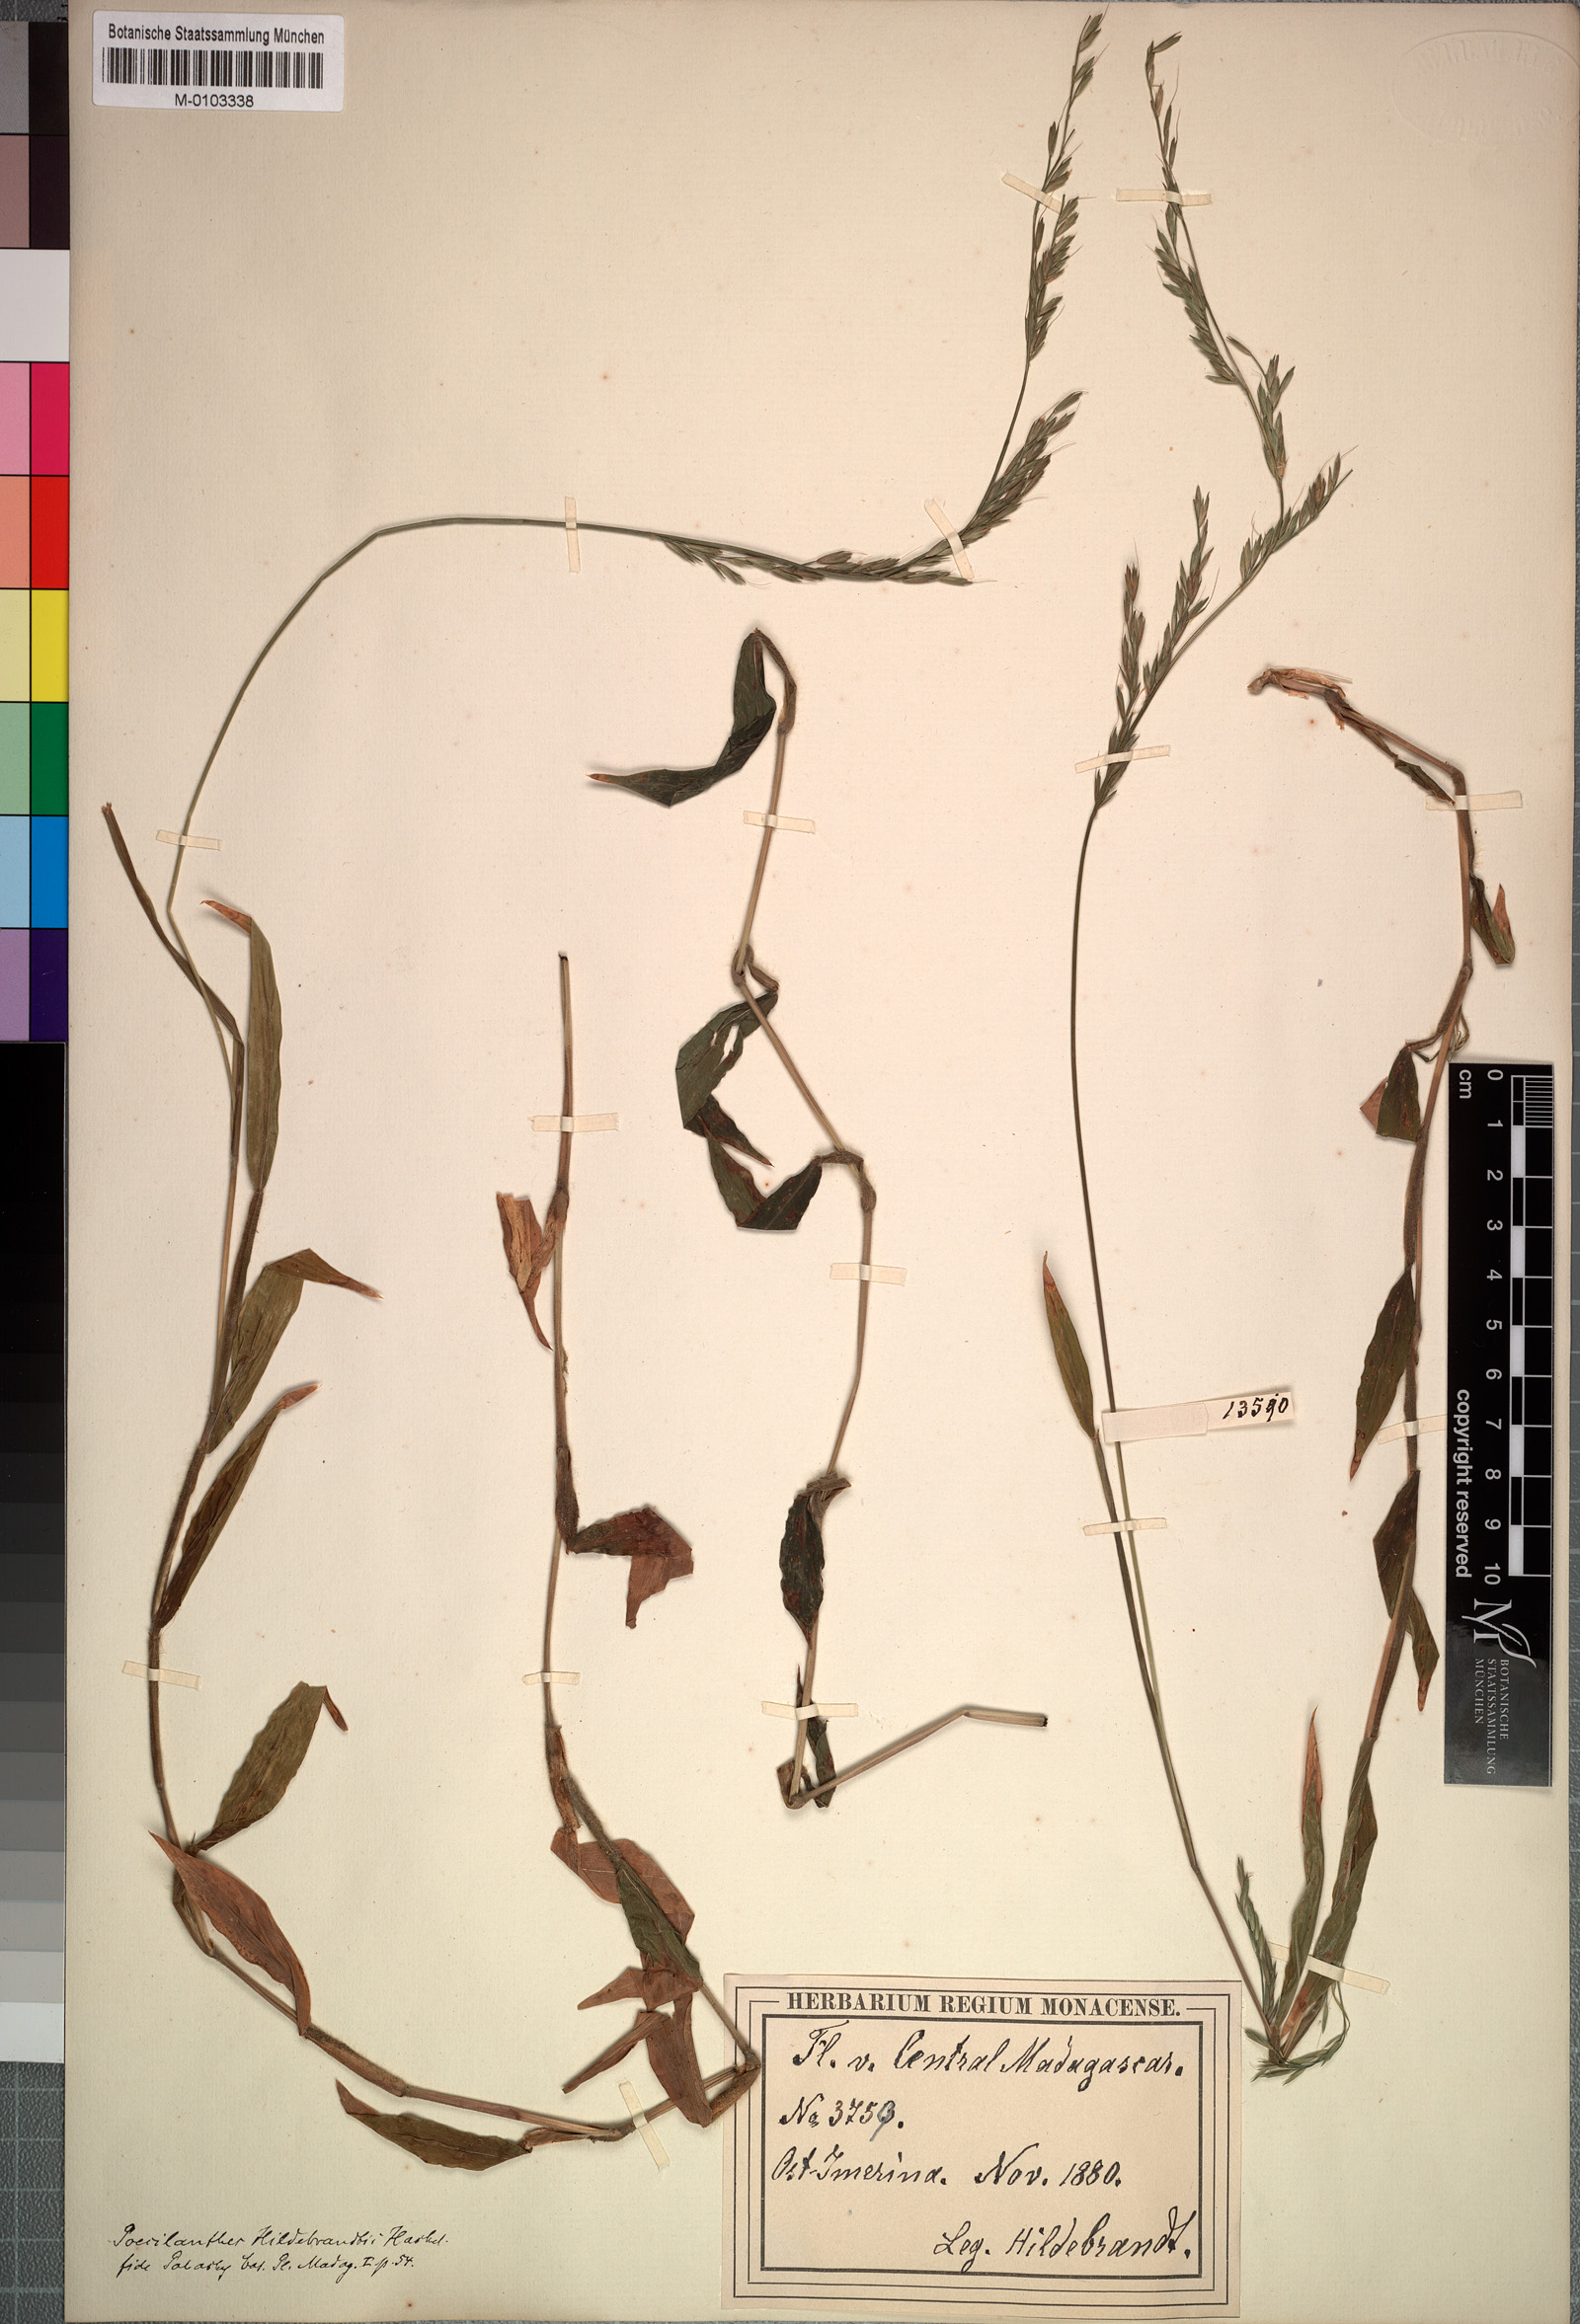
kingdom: Plantae
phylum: Tracheophyta
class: Liliopsida
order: Poales
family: Poaceae
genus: Poecilostachys
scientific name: Poecilostachys hildebrandtii
